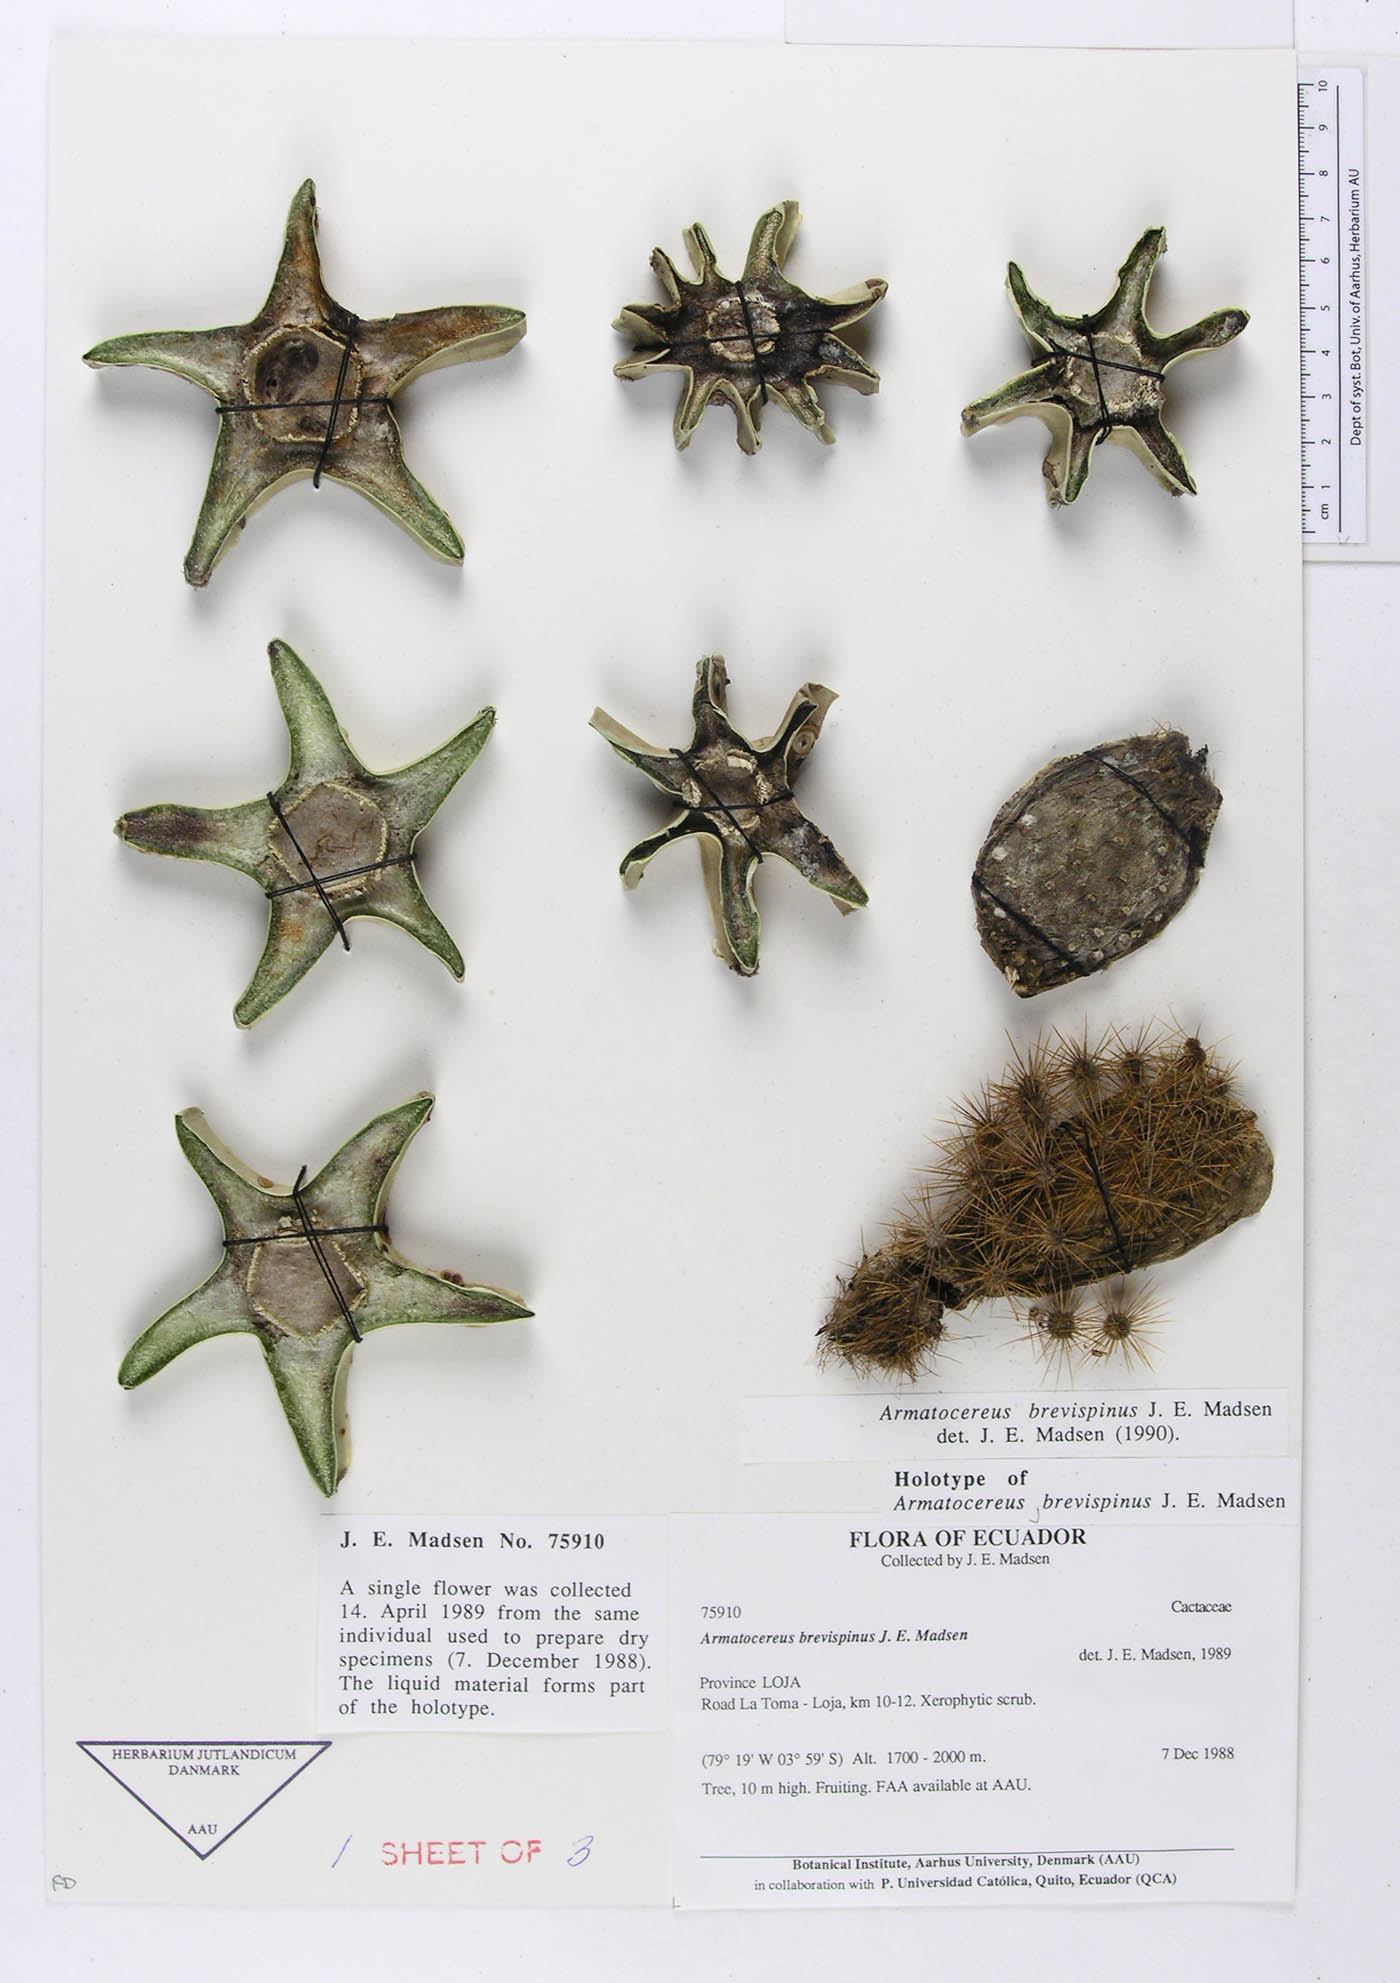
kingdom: Plantae
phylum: Tracheophyta
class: Magnoliopsida
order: Caryophyllales
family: Cactaceae
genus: Armatocereus
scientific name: Armatocereus godingianus
